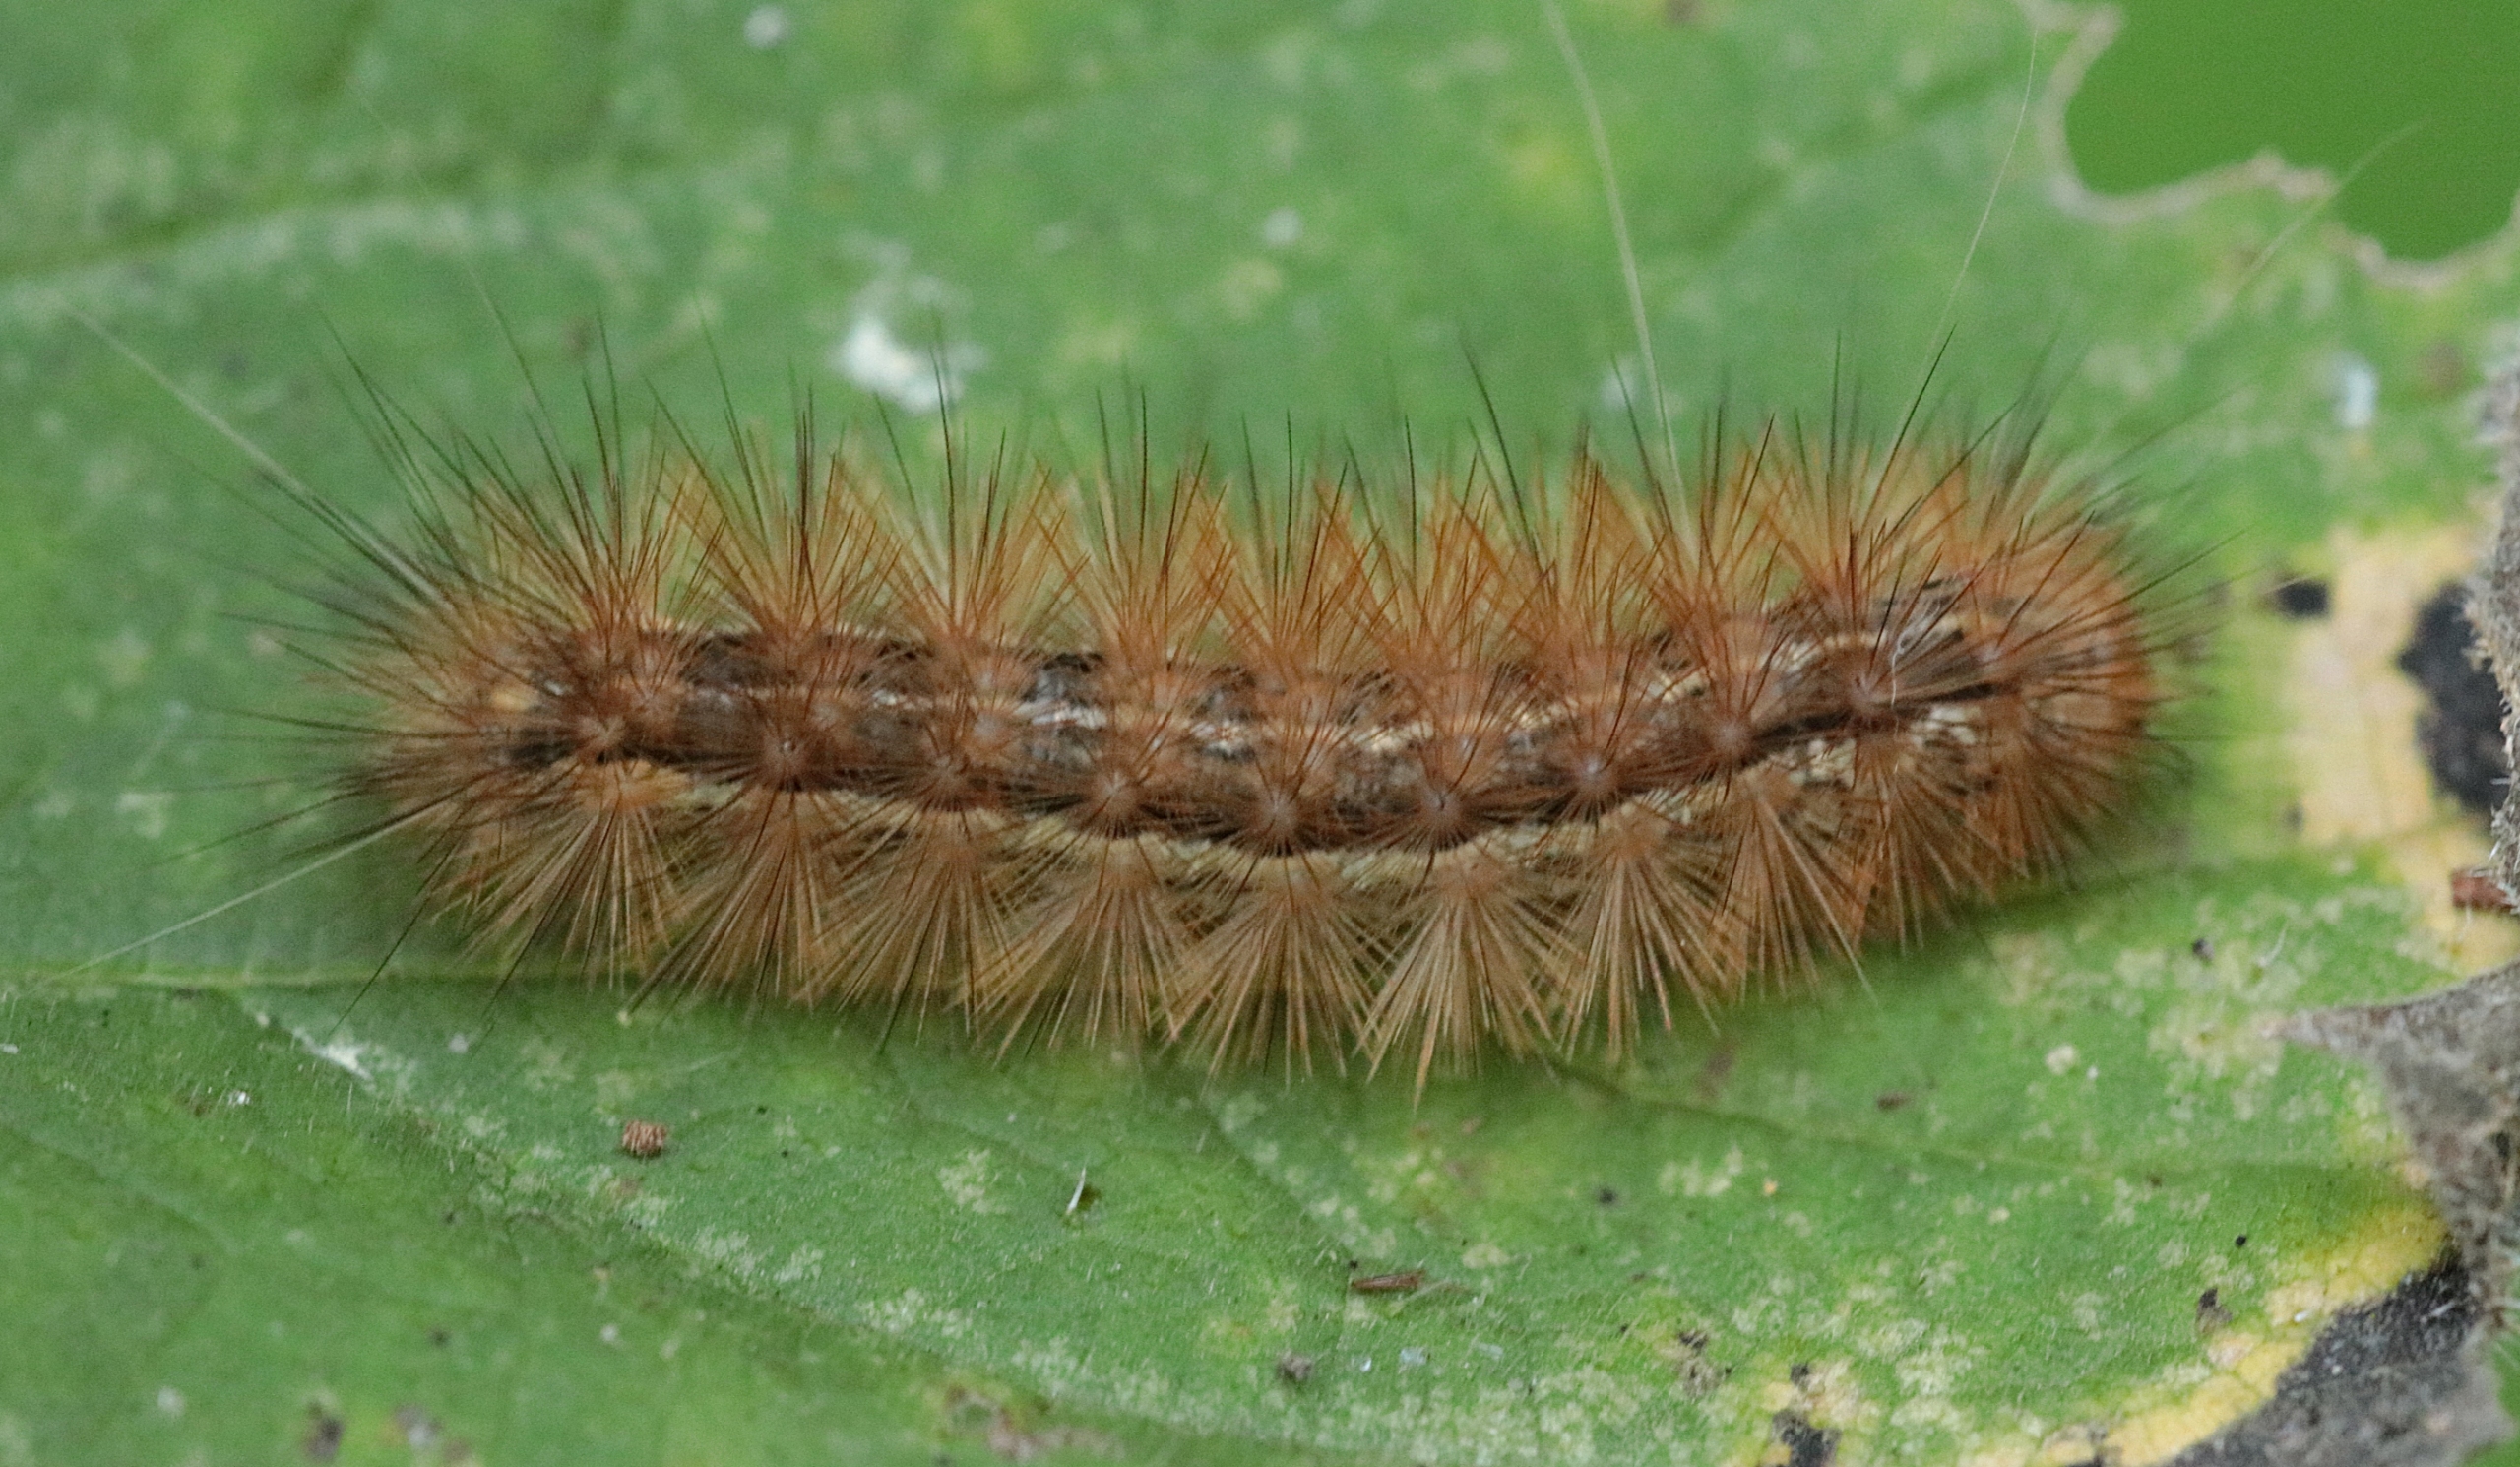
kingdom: Animalia
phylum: Arthropoda
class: Insecta
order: Lepidoptera
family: Erebidae
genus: Spilarctia
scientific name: Spilarctia lutea
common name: Gul tigerspinder
